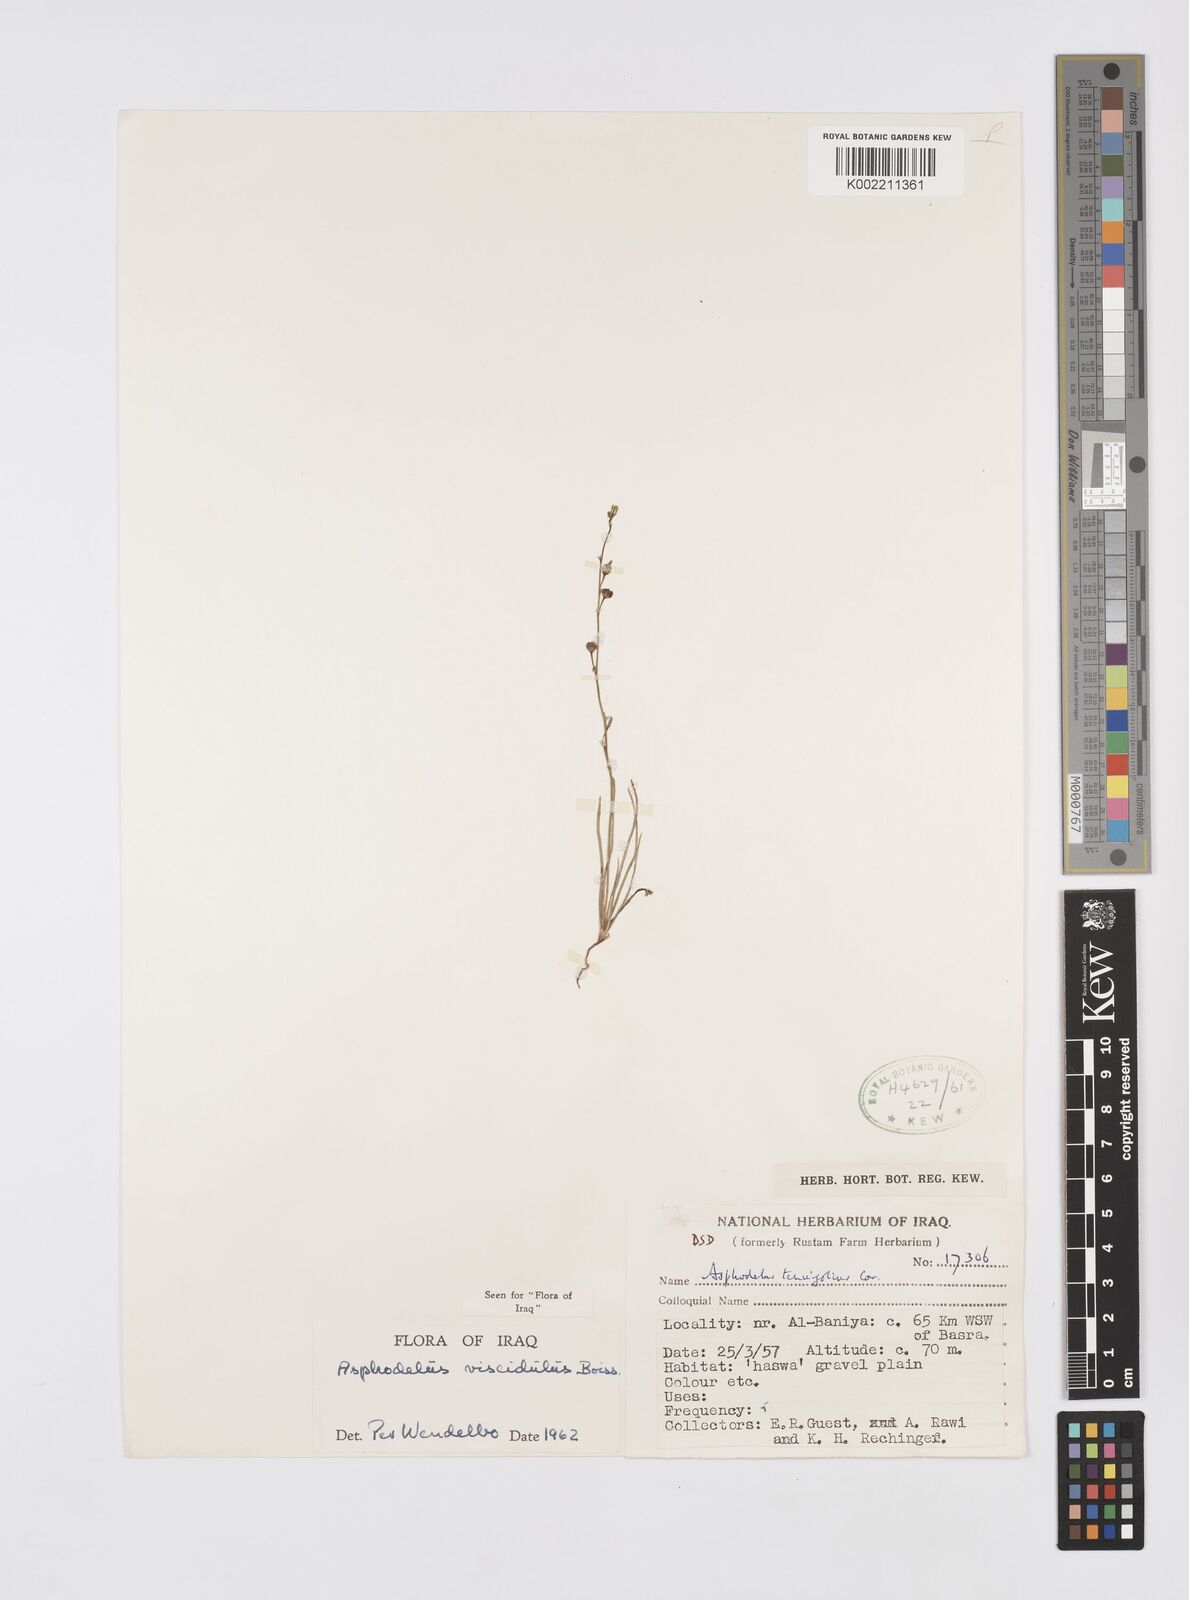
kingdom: Plantae
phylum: Tracheophyta
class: Liliopsida
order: Asparagales
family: Asphodelaceae
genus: Asphodelus
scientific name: Asphodelus viscidulus
